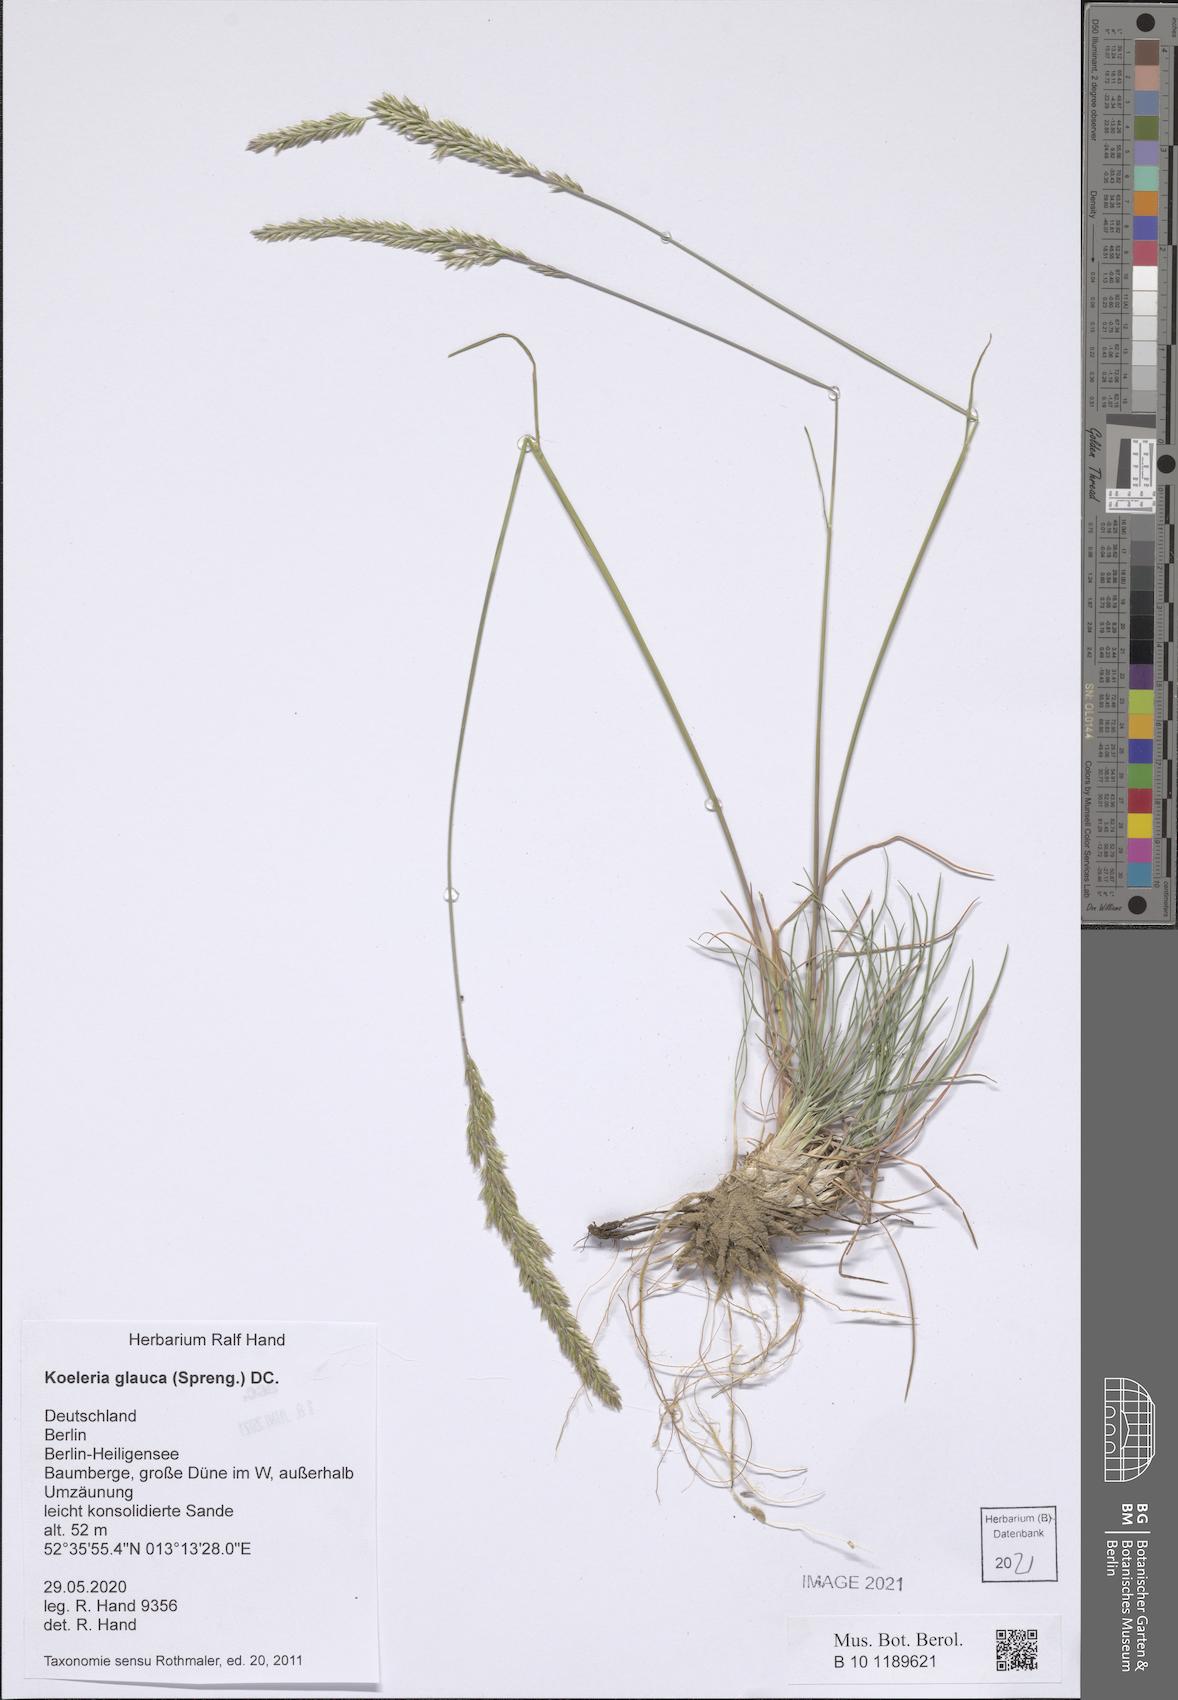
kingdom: Plantae
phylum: Tracheophyta
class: Liliopsida
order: Poales
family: Poaceae
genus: Koeleria
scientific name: Koeleria glauca
